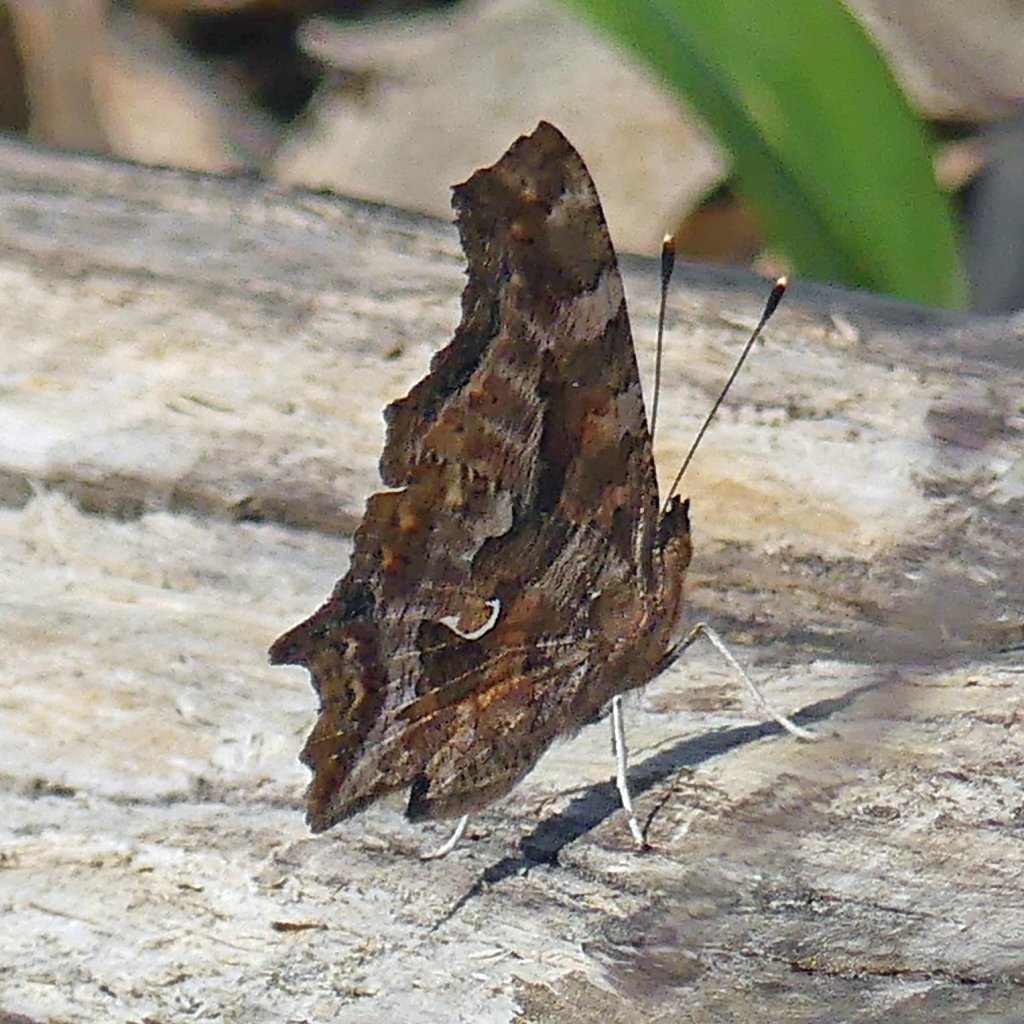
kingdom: Animalia
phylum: Arthropoda
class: Insecta
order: Lepidoptera
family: Nymphalidae
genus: Polygonia
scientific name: Polygonia comma
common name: Eastern Comma
